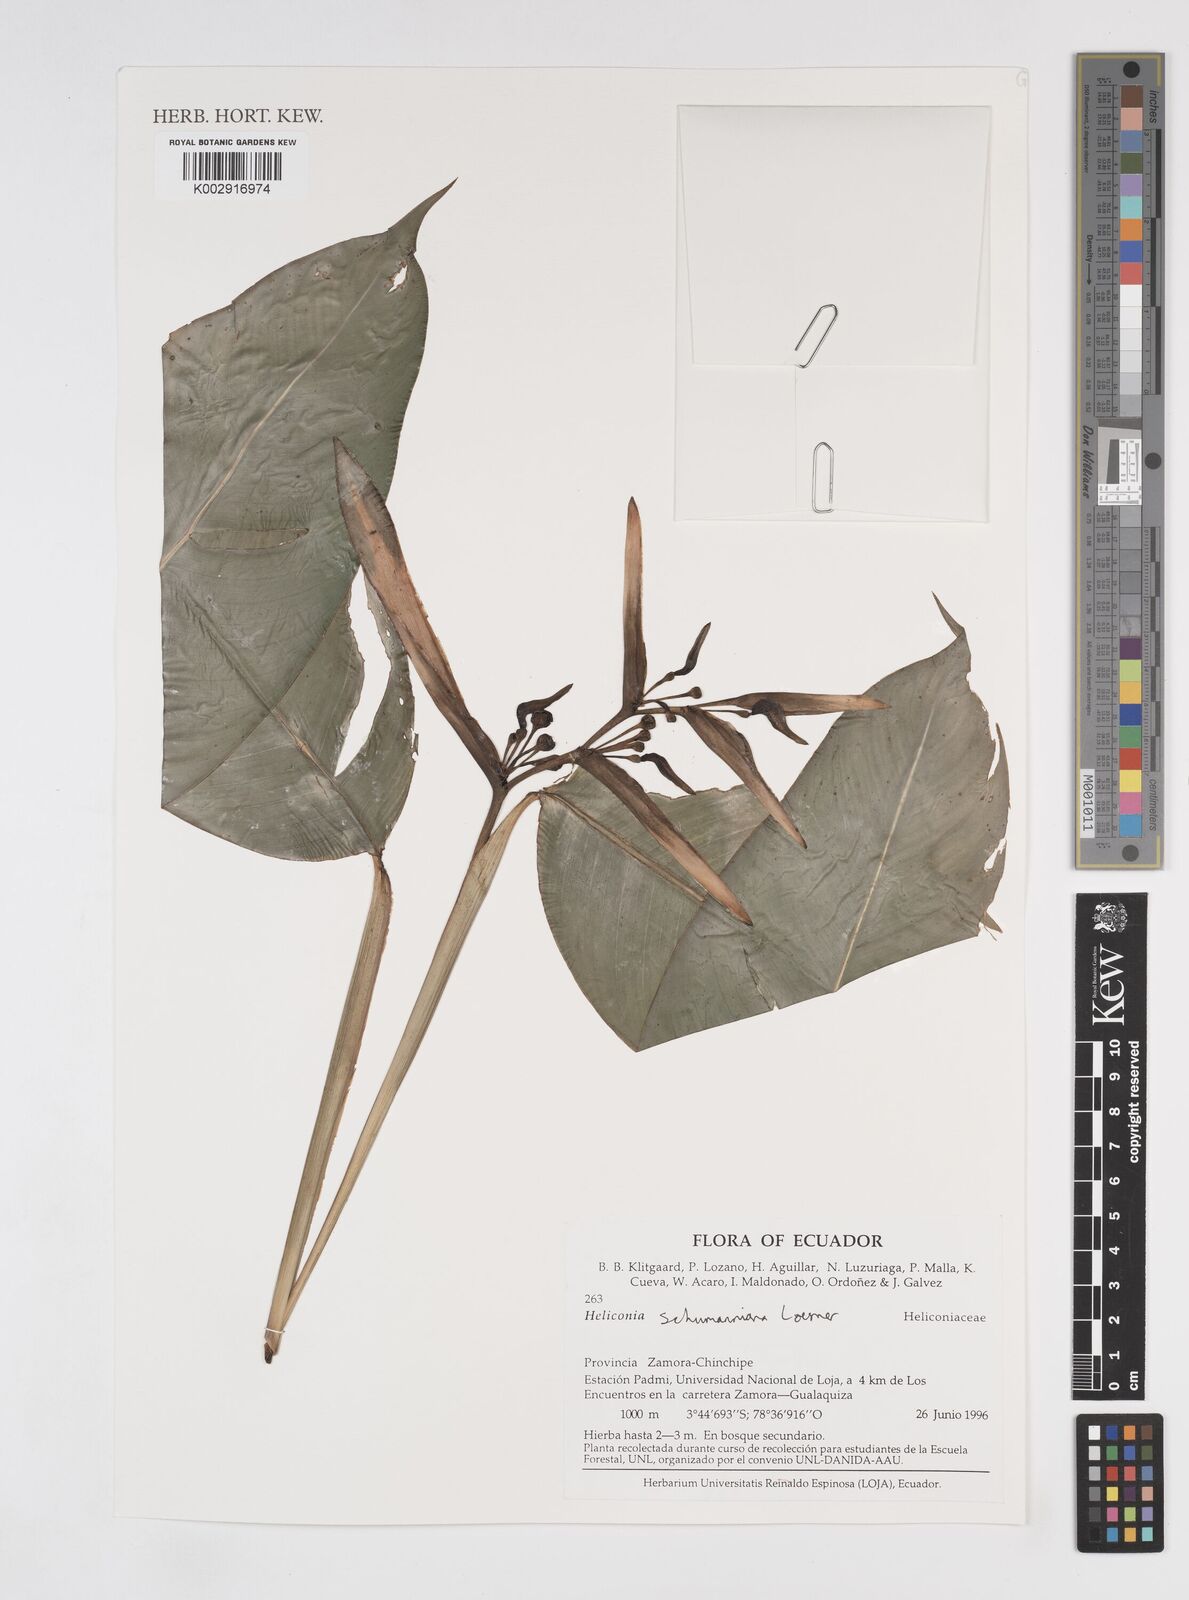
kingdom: Plantae
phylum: Tracheophyta
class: Liliopsida
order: Zingiberales
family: Heliconiaceae
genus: Heliconia
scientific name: Heliconia schumanniana
